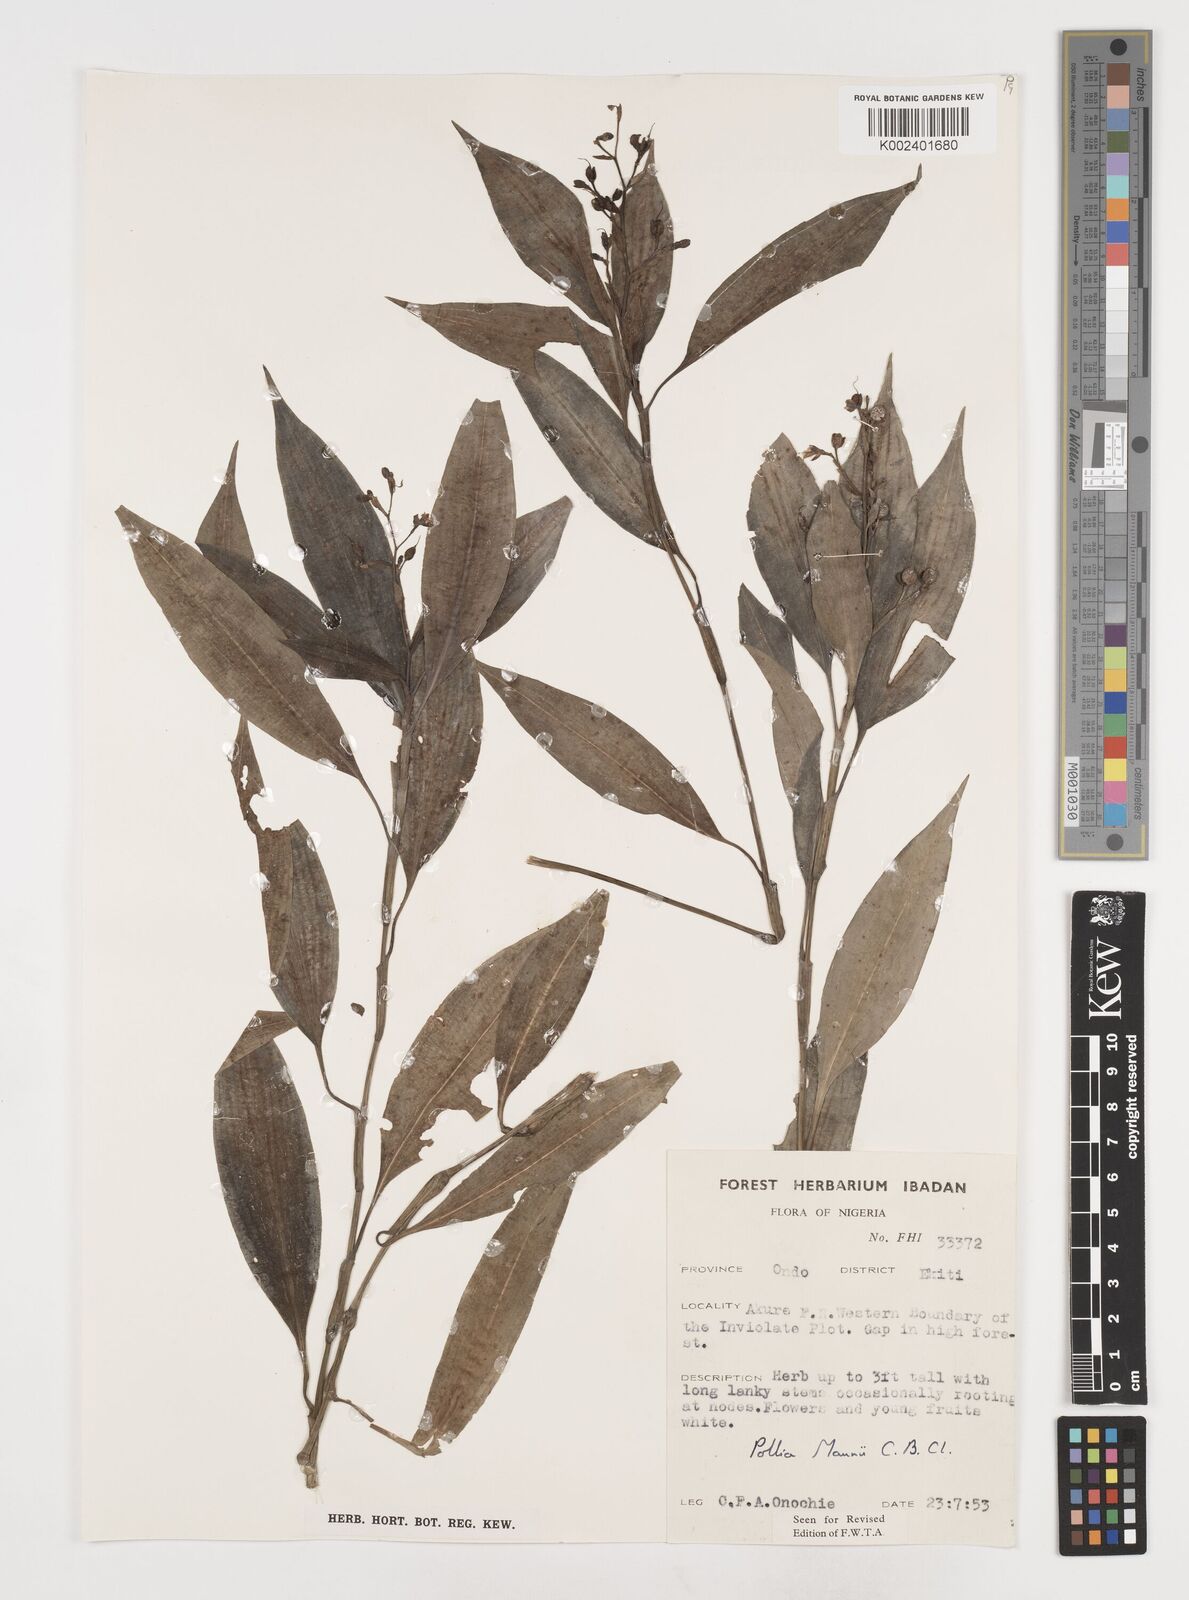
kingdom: Plantae
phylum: Tracheophyta
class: Liliopsida
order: Commelinales
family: Commelinaceae
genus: Pollia
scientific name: Pollia mannii
